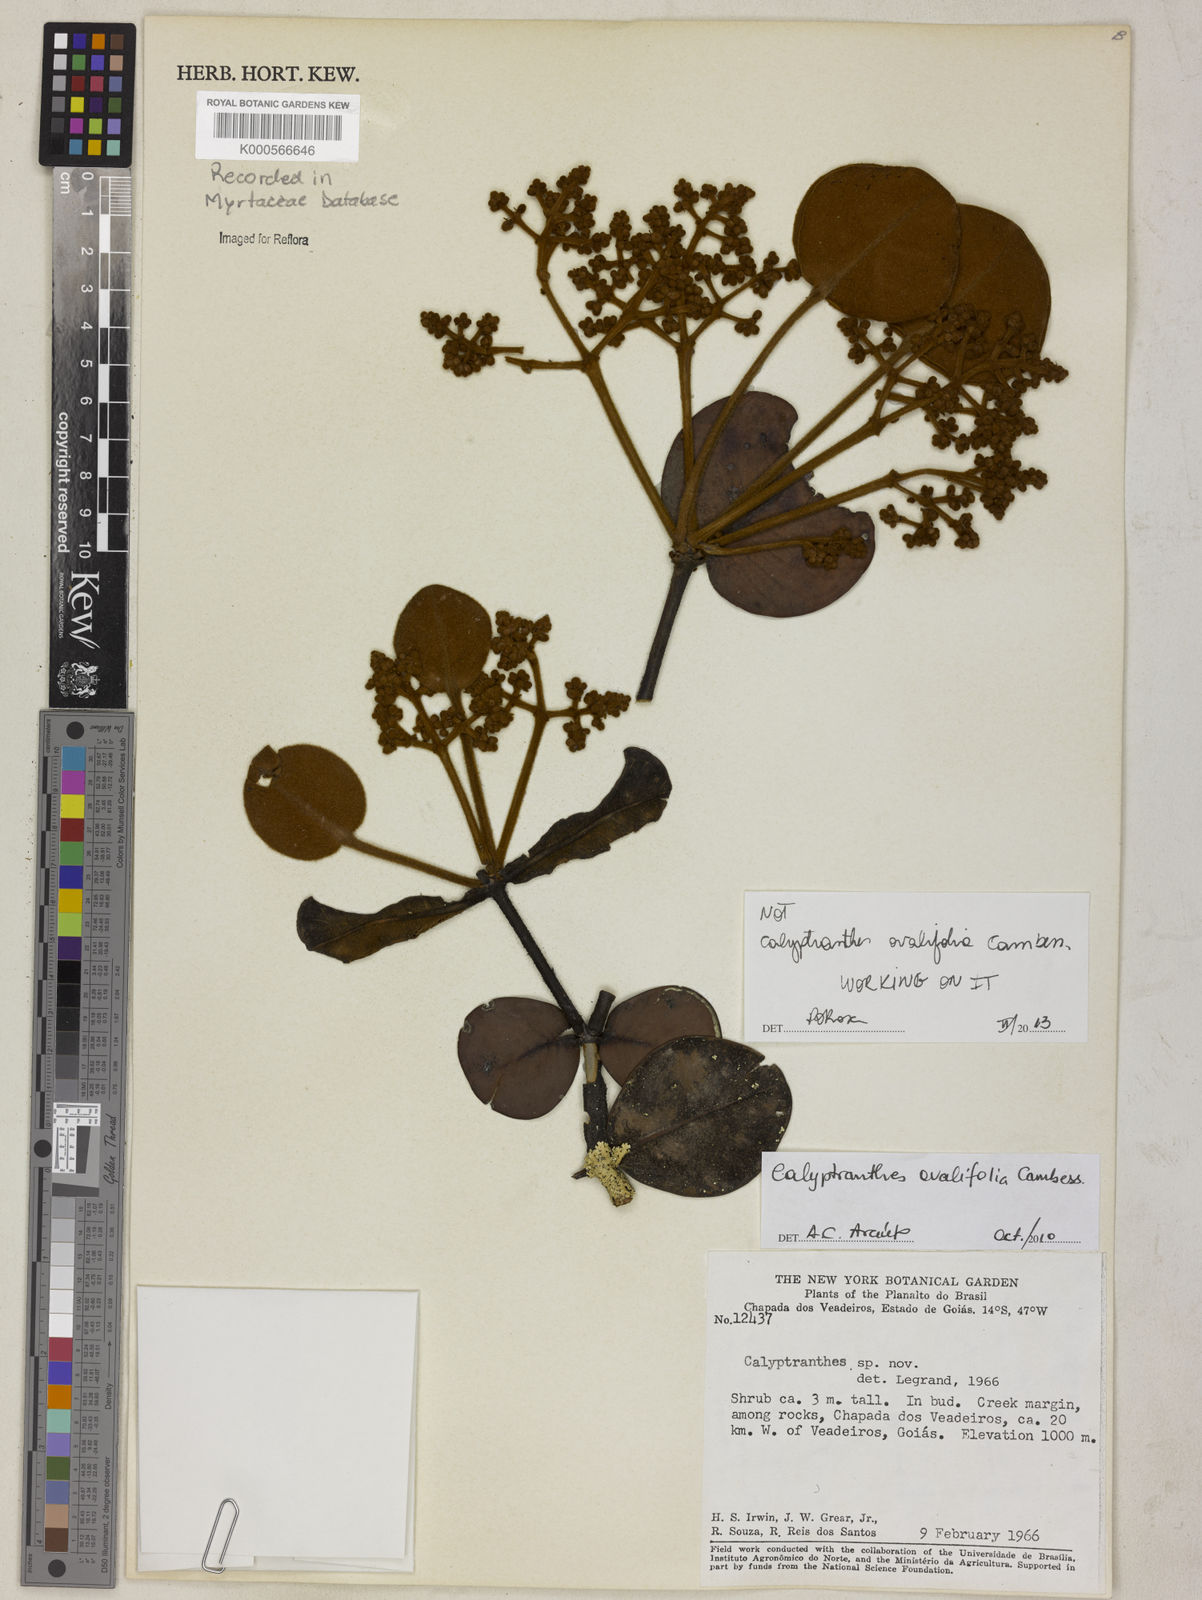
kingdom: Plantae
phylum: Tracheophyta
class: Magnoliopsida
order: Myrtales
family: Myrtaceae
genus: Calyptranthes
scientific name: Calyptranthes
